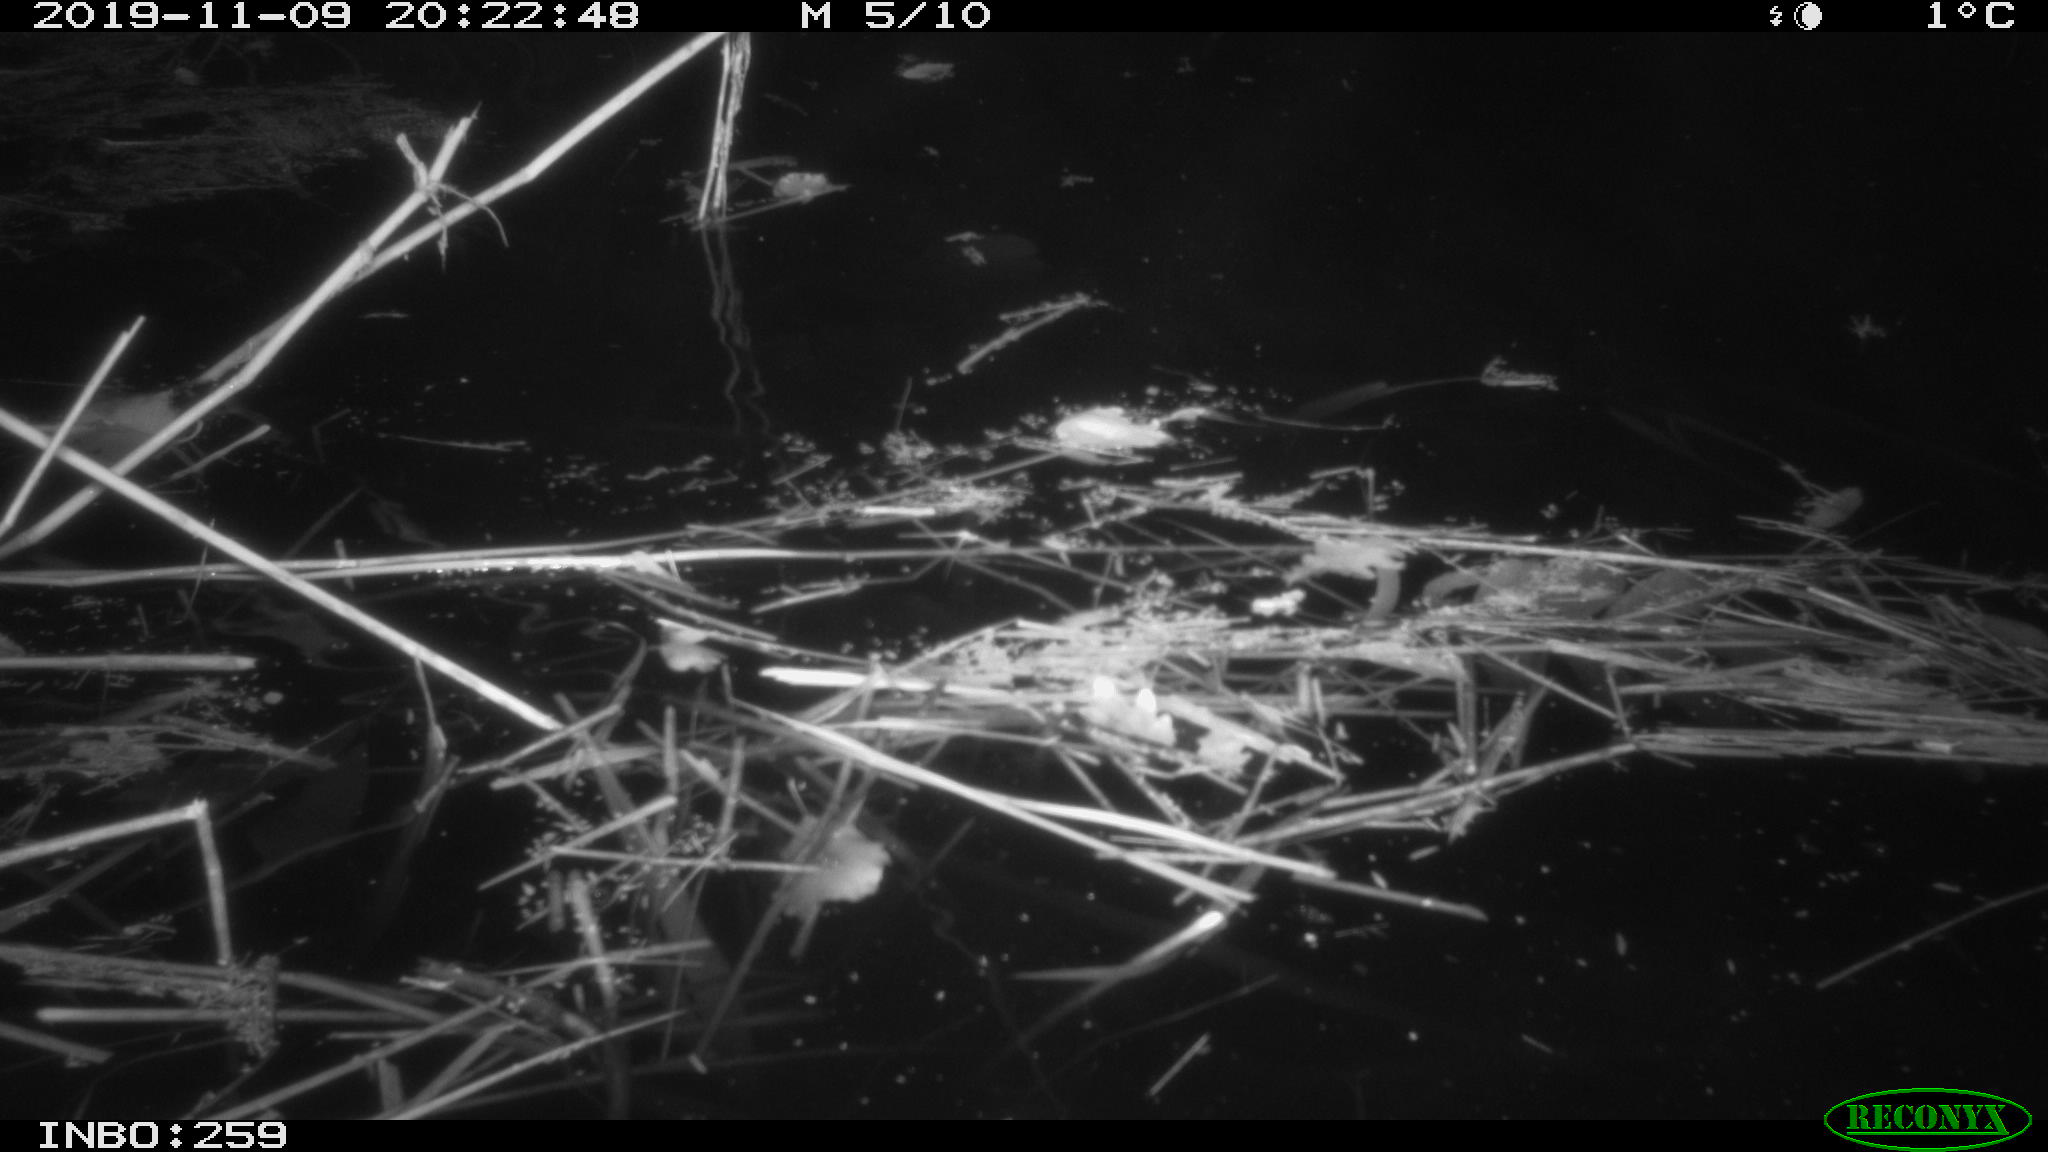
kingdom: Animalia
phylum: Chordata
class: Mammalia
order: Rodentia
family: Muridae
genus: Rattus
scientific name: Rattus norvegicus
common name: Brown rat
